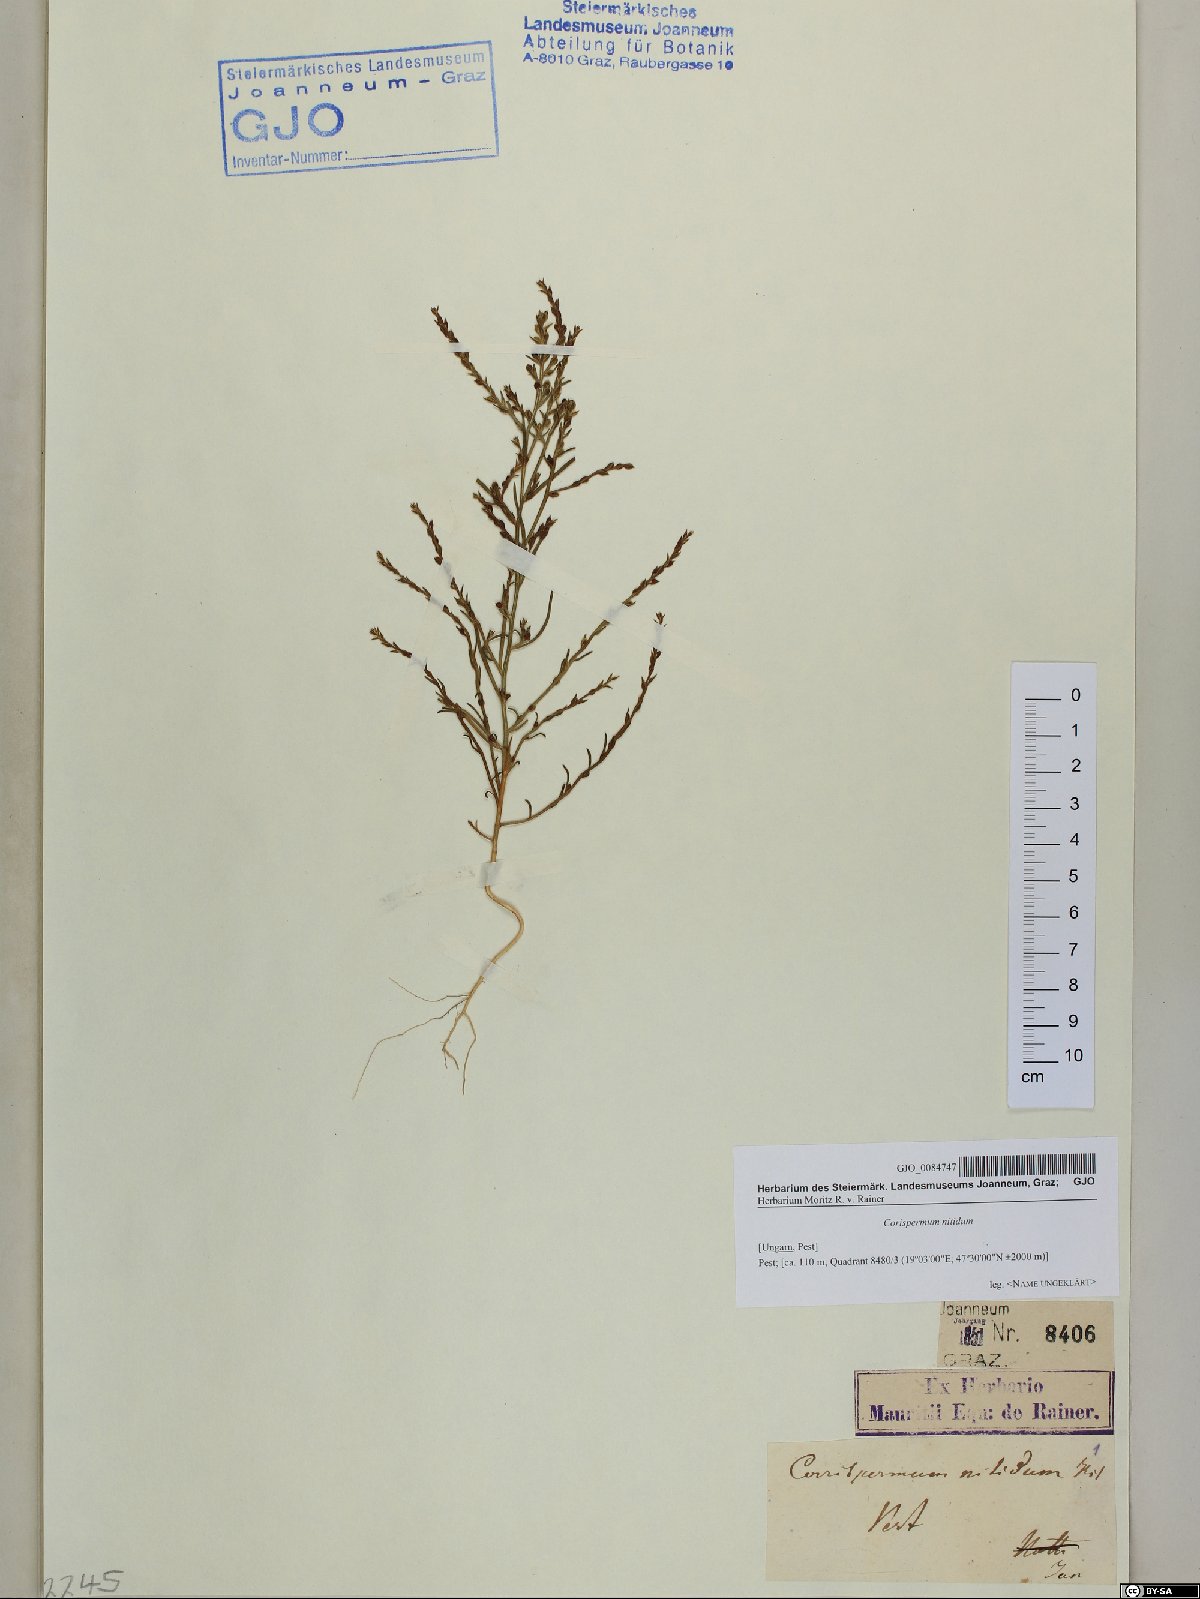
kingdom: Plantae
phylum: Tracheophyta
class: Magnoliopsida
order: Caryophyllales
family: Amaranthaceae
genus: Corispermum
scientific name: Corispermum nitidum
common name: Bugseed
